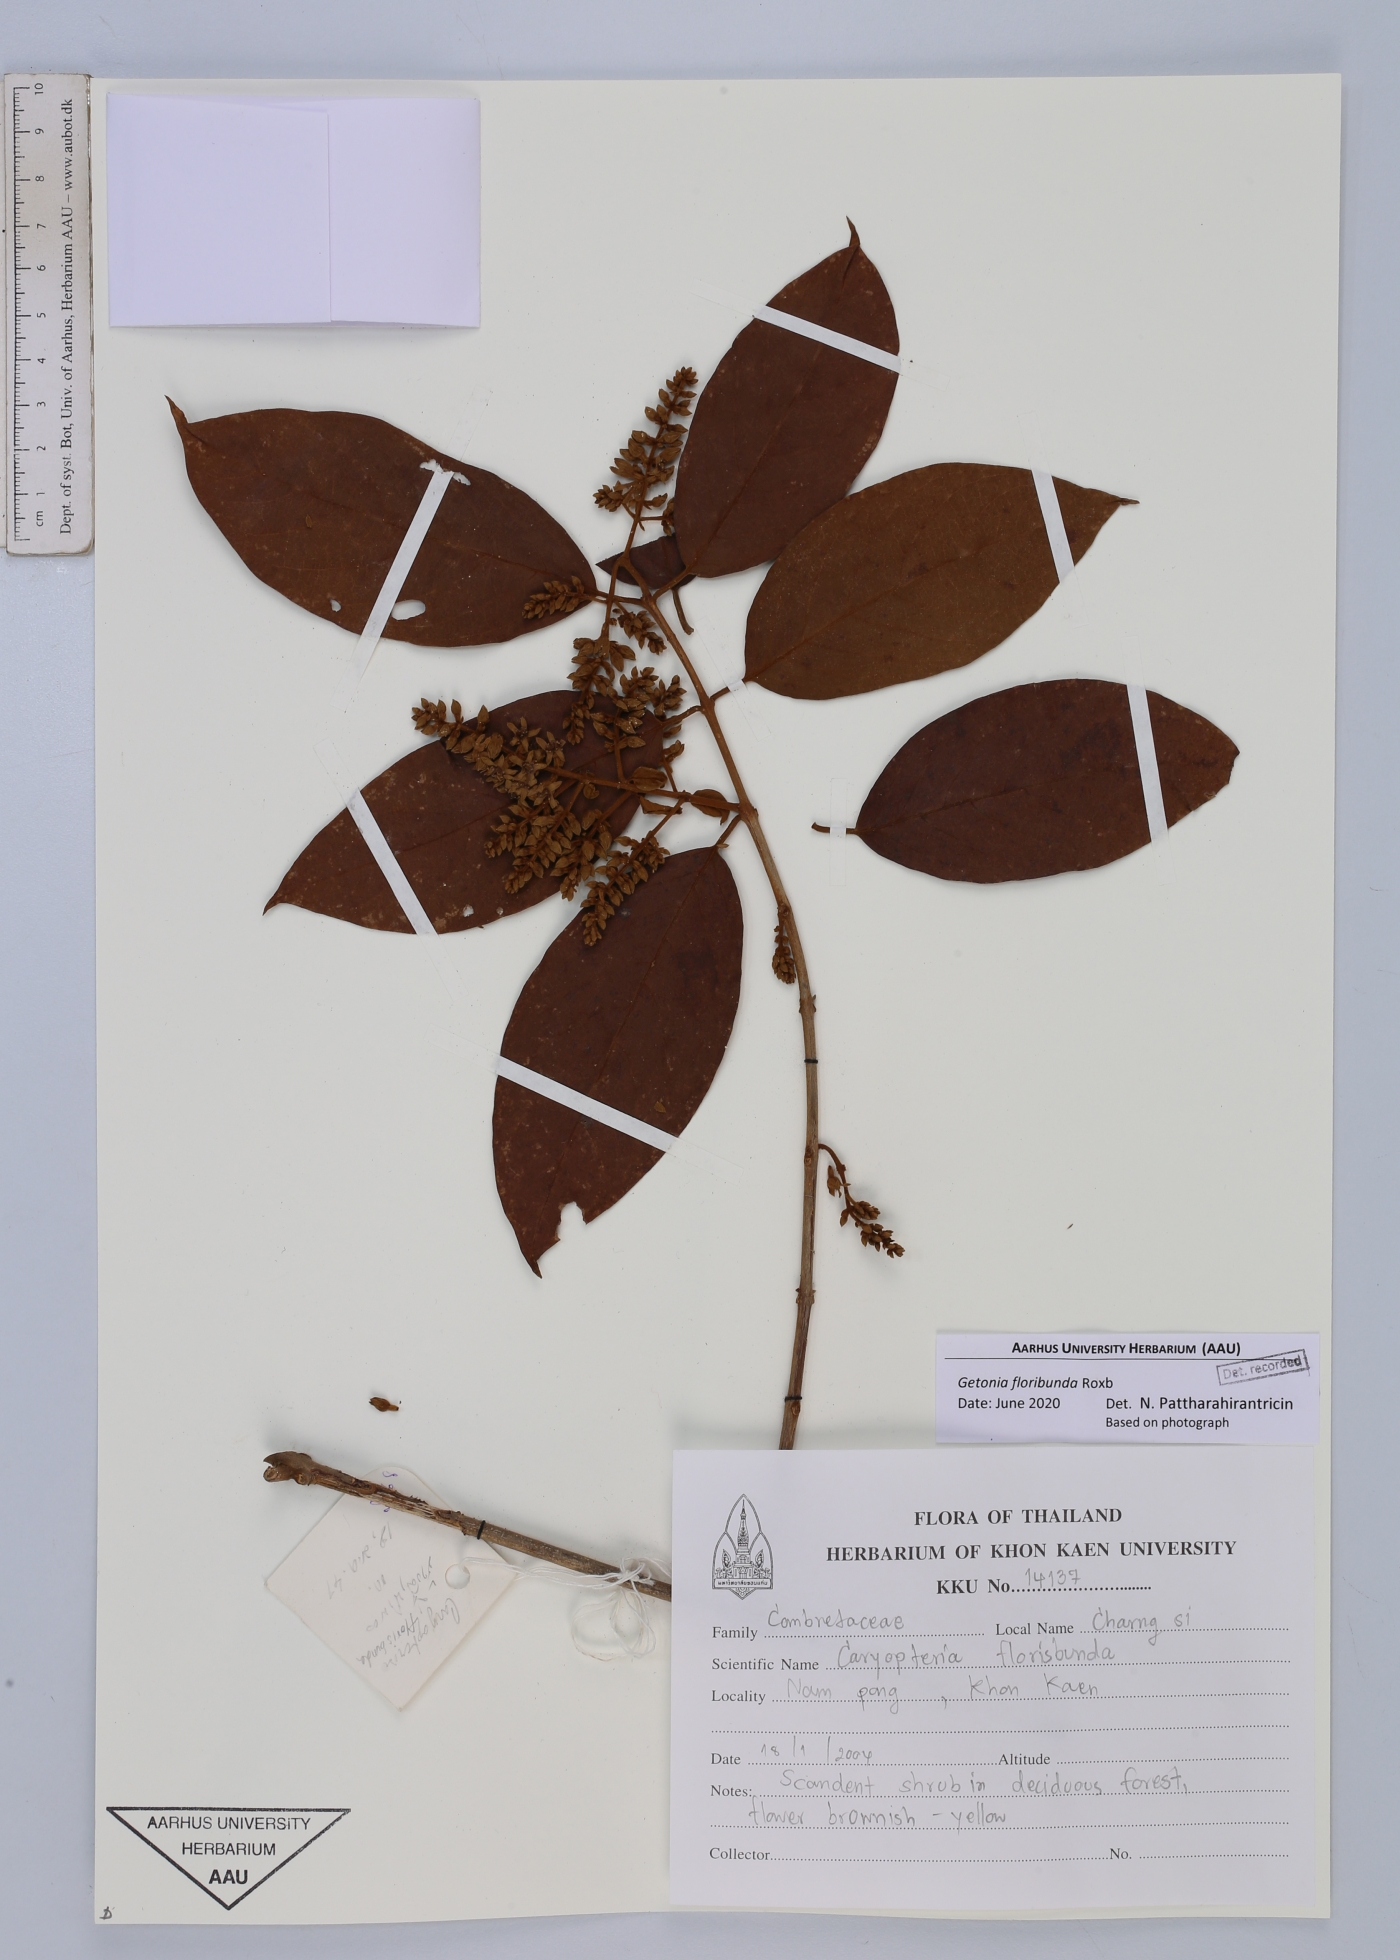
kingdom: Plantae
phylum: Tracheophyta
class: Magnoliopsida
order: Myrtales
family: Combretaceae
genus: Getonia
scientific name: Getonia floribunda
